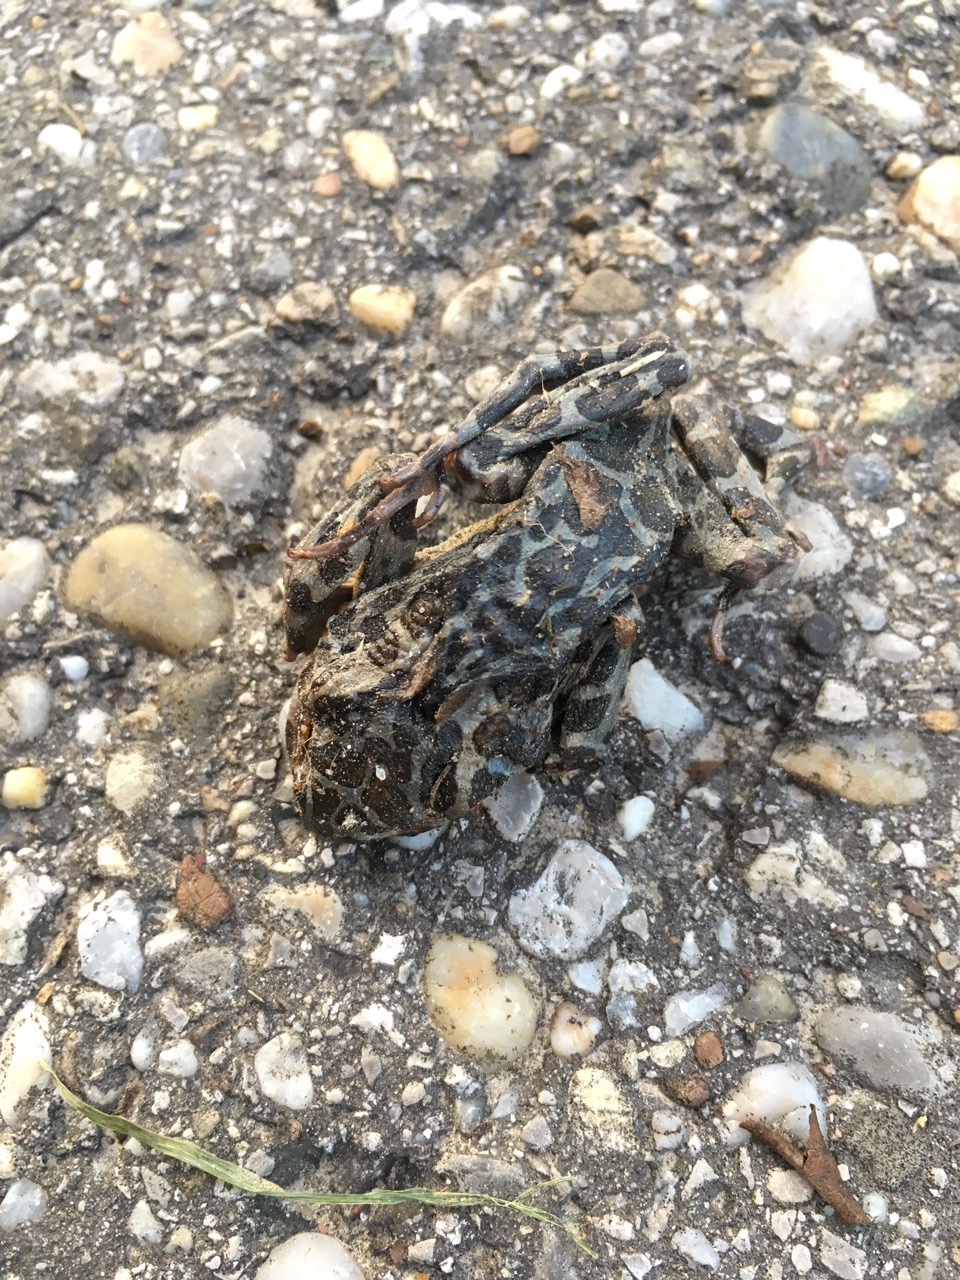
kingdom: Animalia
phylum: Chordata
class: Amphibia
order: Anura
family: Bufonidae
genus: Bufotes
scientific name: Bufotes viridis
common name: European green toad
